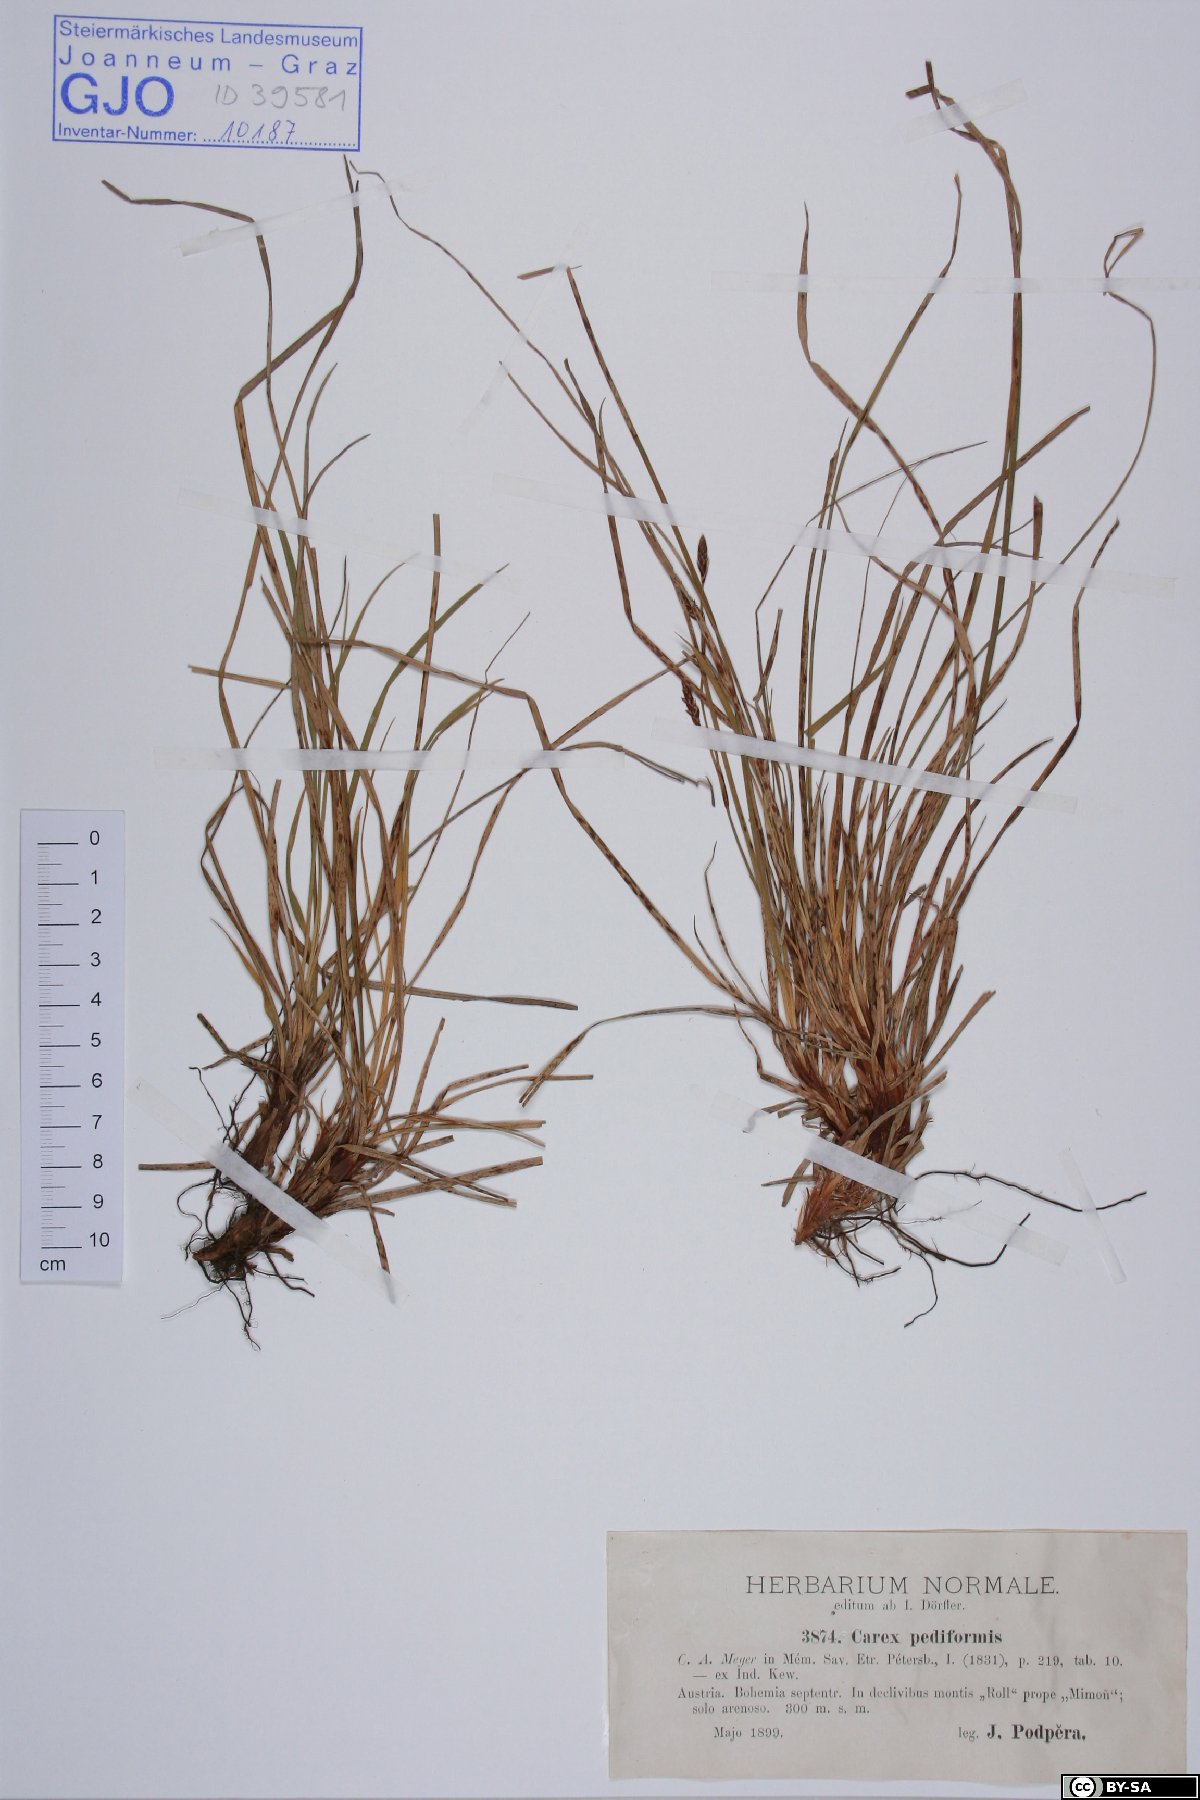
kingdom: Plantae
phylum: Tracheophyta
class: Liliopsida
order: Poales
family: Cyperaceae
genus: Carex
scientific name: Carex pediformis
